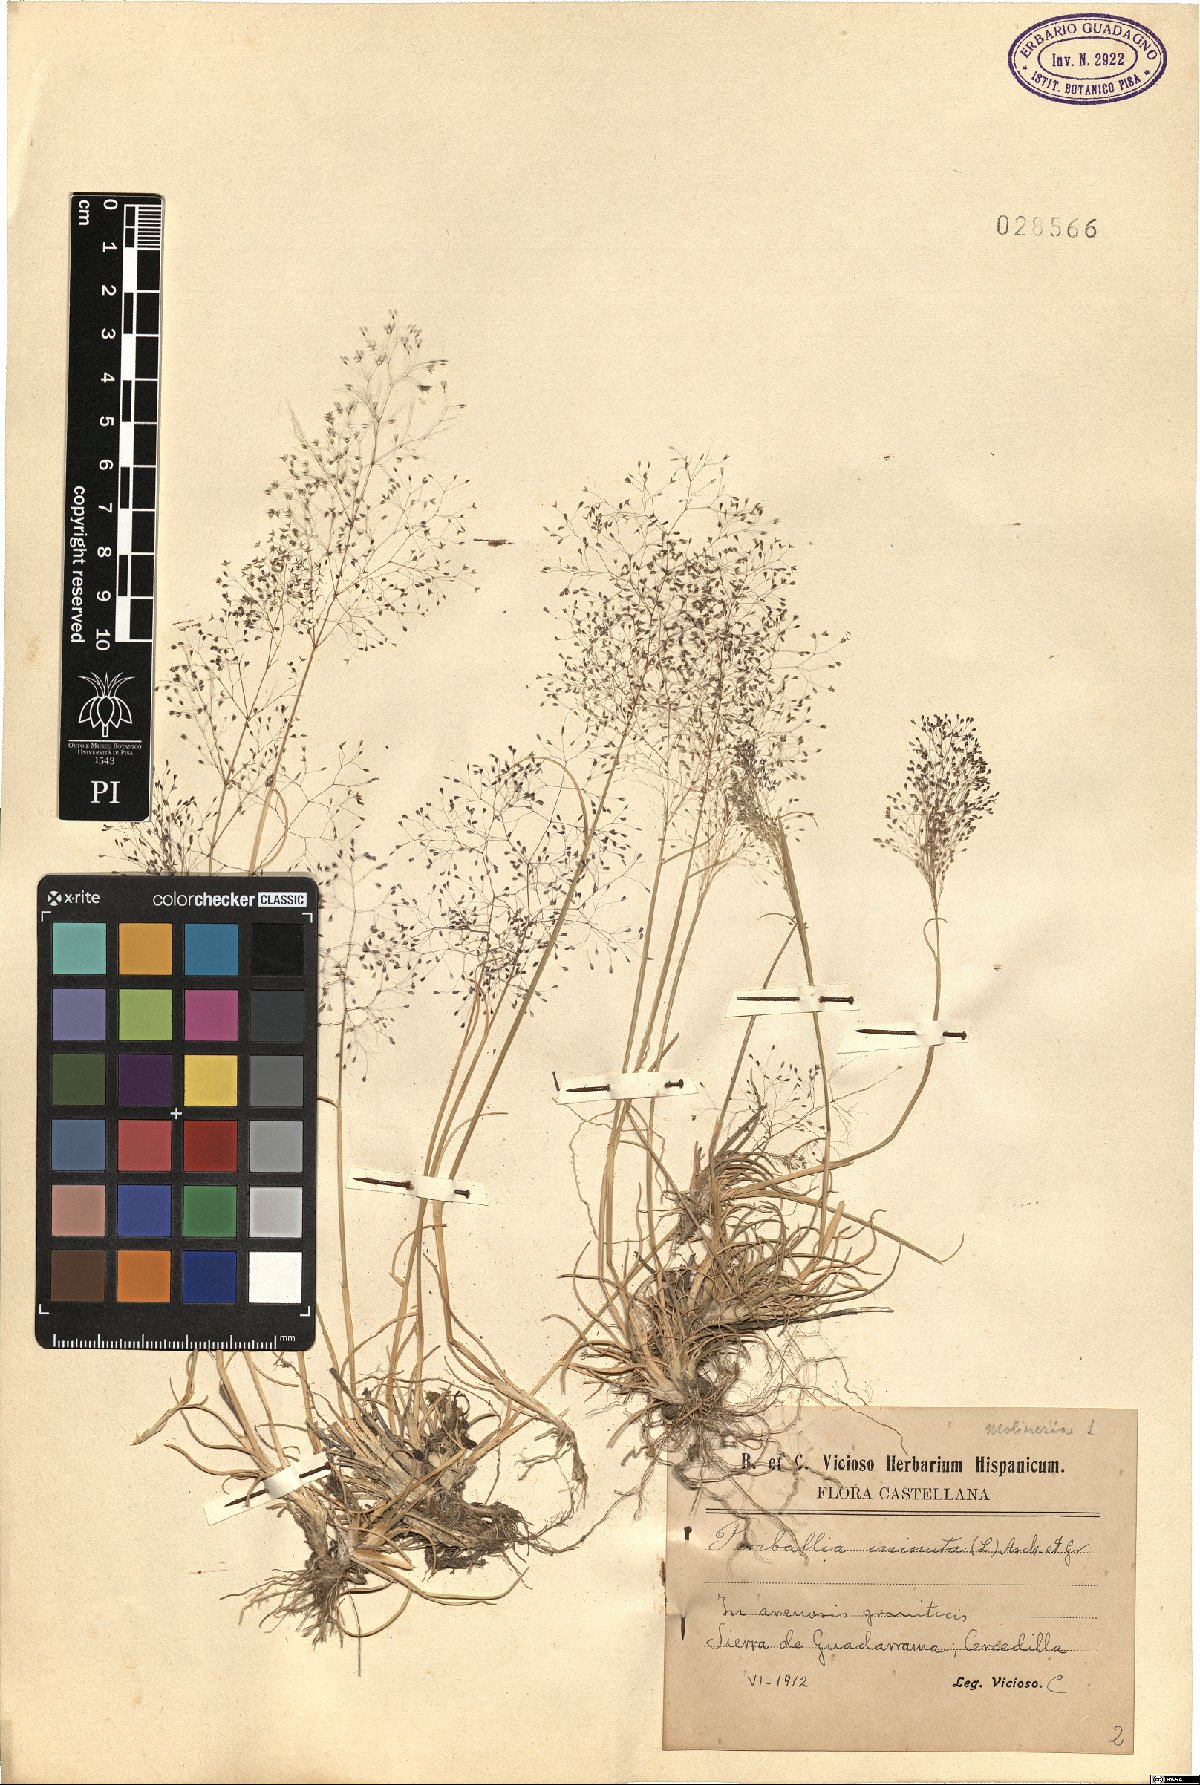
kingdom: Plantae
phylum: Tracheophyta
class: Liliopsida
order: Poales
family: Poaceae
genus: Molineriella
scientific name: Molineriella minuta
